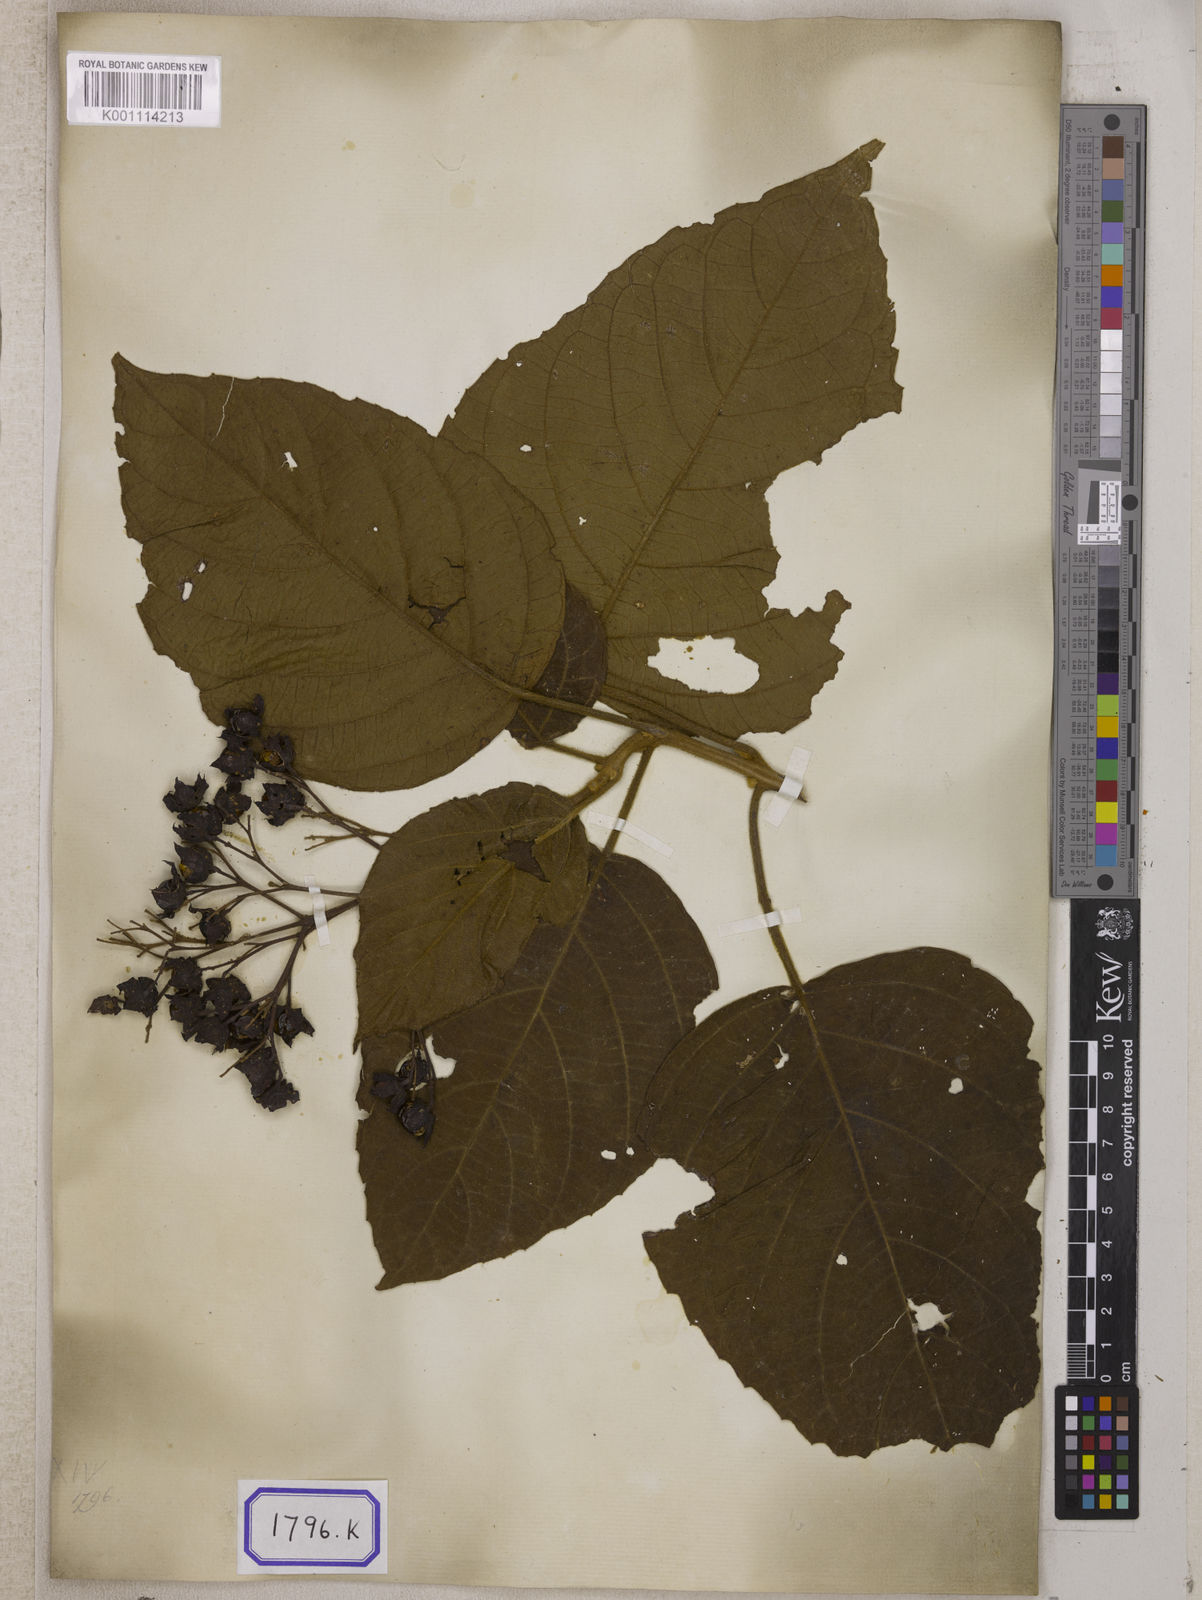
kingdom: Plantae
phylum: Tracheophyta
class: Magnoliopsida
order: Lamiales
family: Lamiaceae
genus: Clerodendrum
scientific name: Clerodendrum infortunatum
